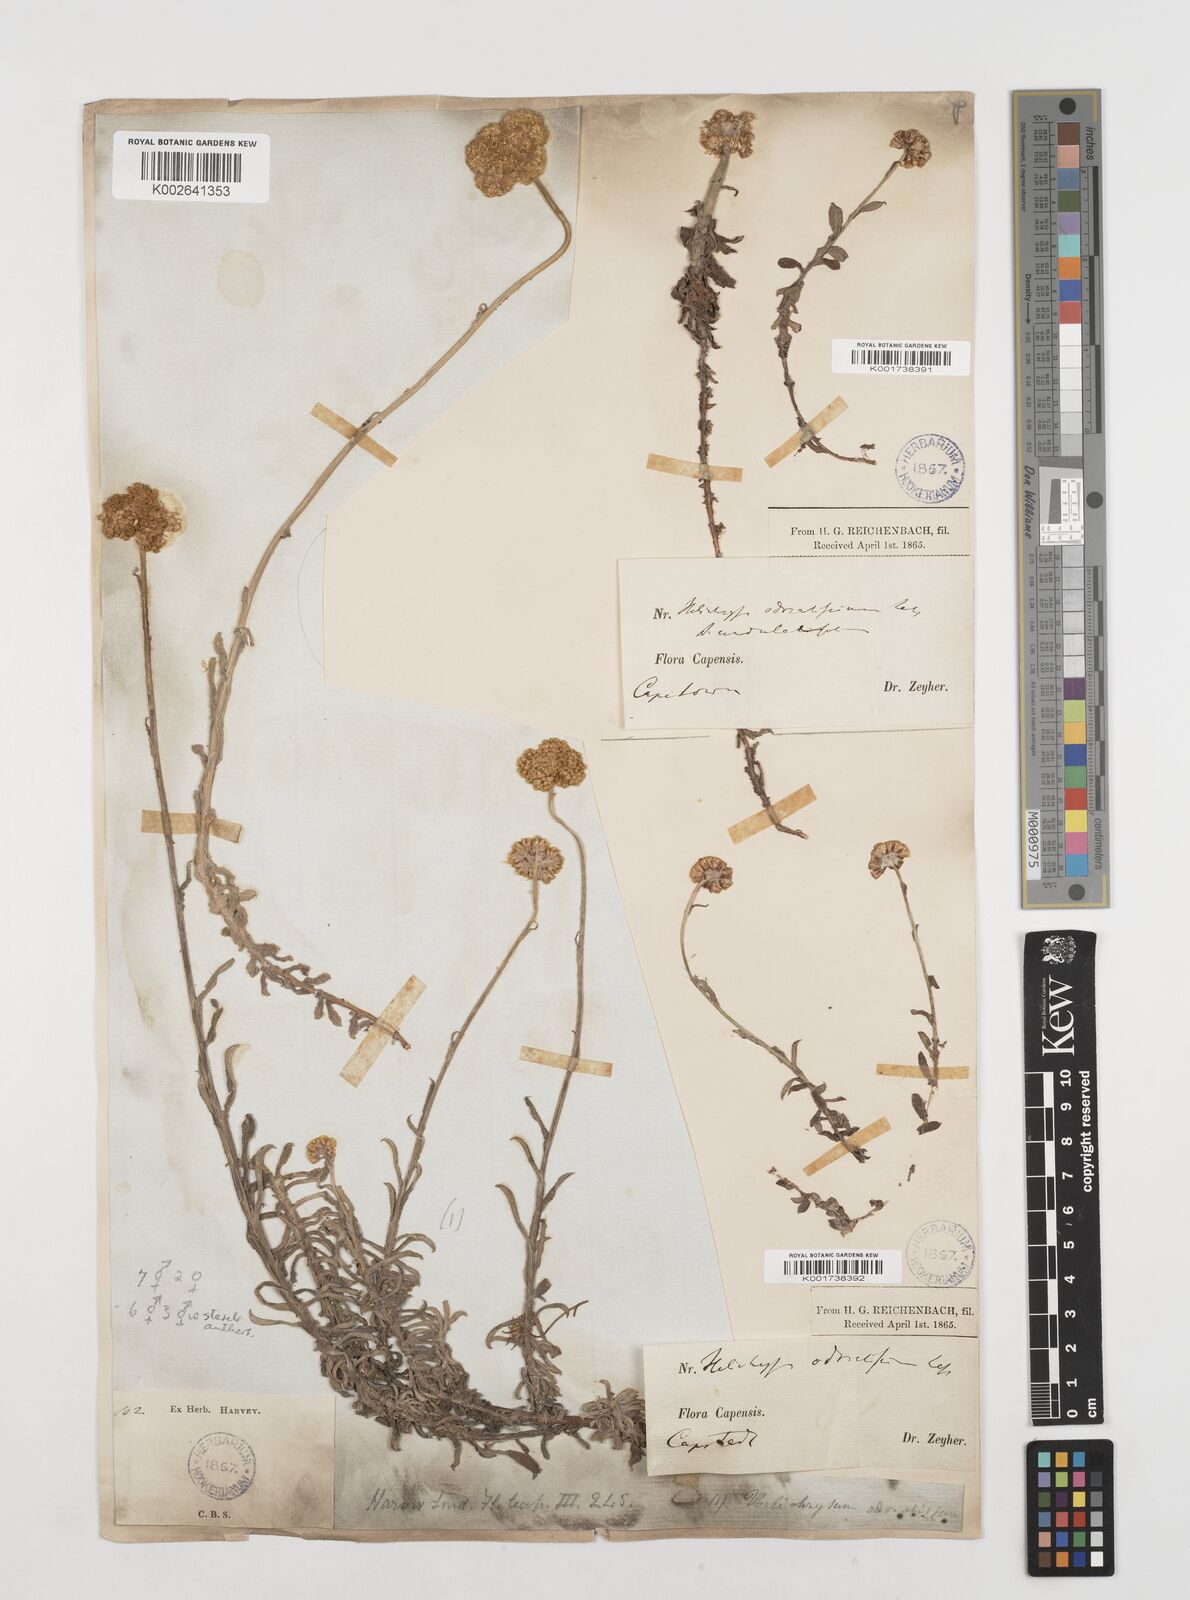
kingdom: Plantae
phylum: Tracheophyta
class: Magnoliopsida
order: Asterales
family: Asteraceae
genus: Helichrysum
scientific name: Helichrysum odoratissimum
